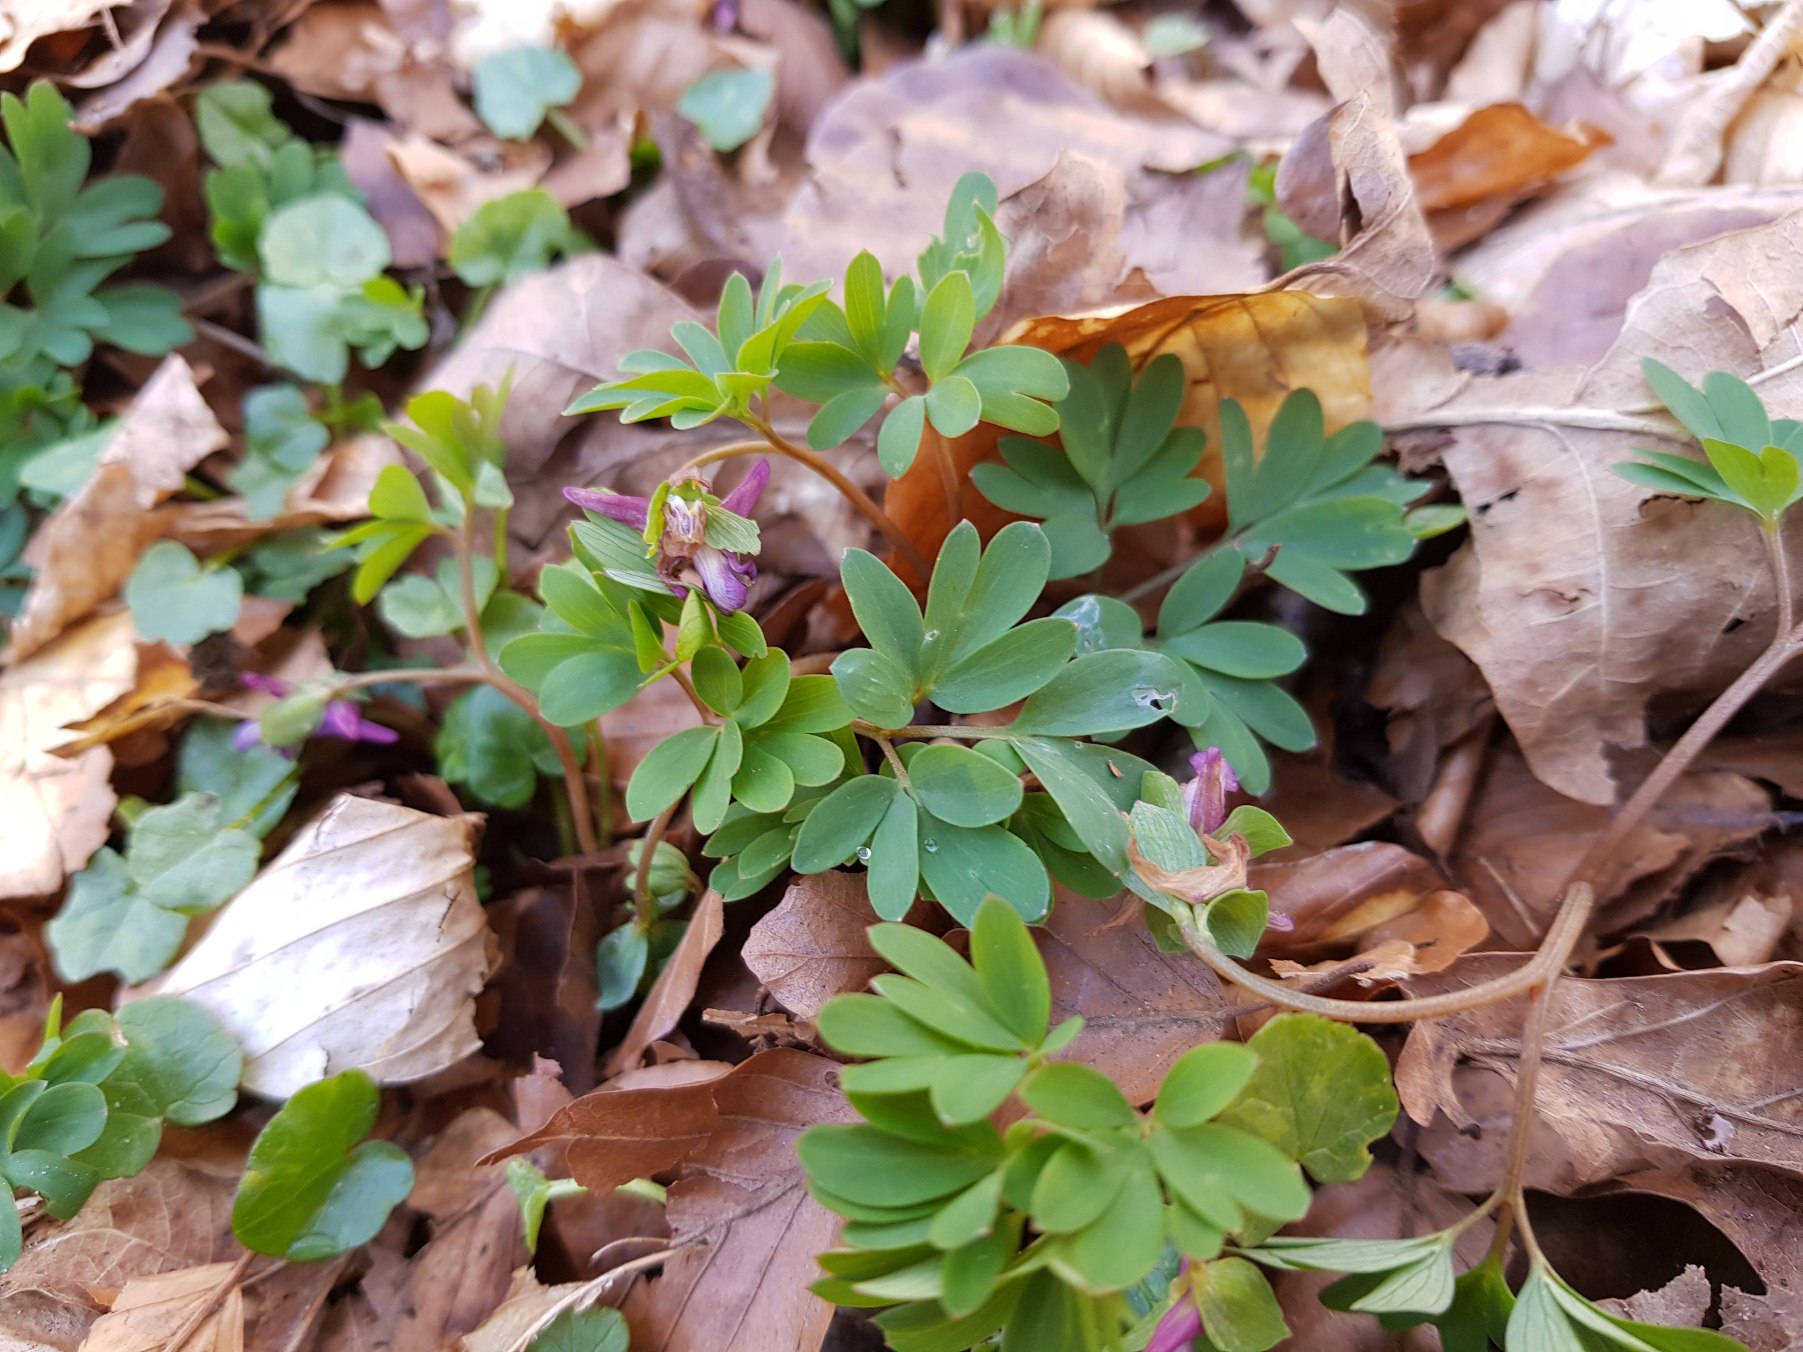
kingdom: Plantae
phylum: Tracheophyta
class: Magnoliopsida
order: Ranunculales
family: Papaveraceae
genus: Corydalis
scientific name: Corydalis intermedia
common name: Liden lærkespore
